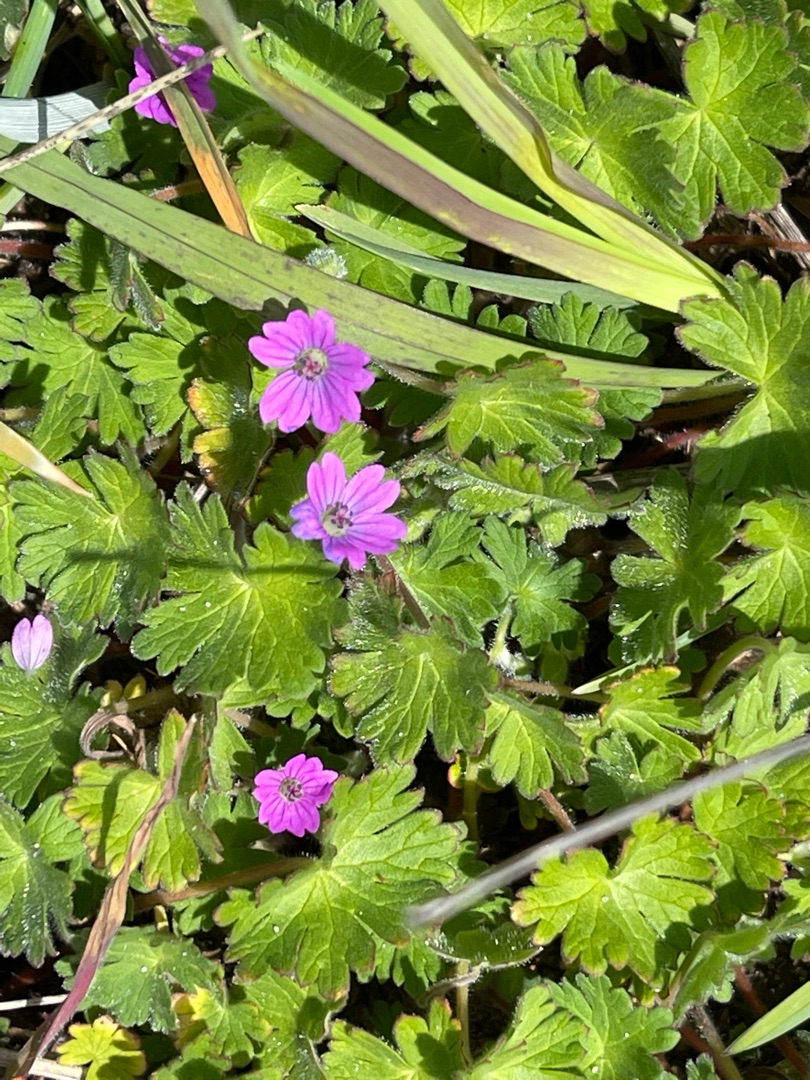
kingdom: Plantae
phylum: Tracheophyta
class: Magnoliopsida
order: Geraniales
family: Geraniaceae
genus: Geranium
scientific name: Geranium molle
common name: Blød storkenæb
